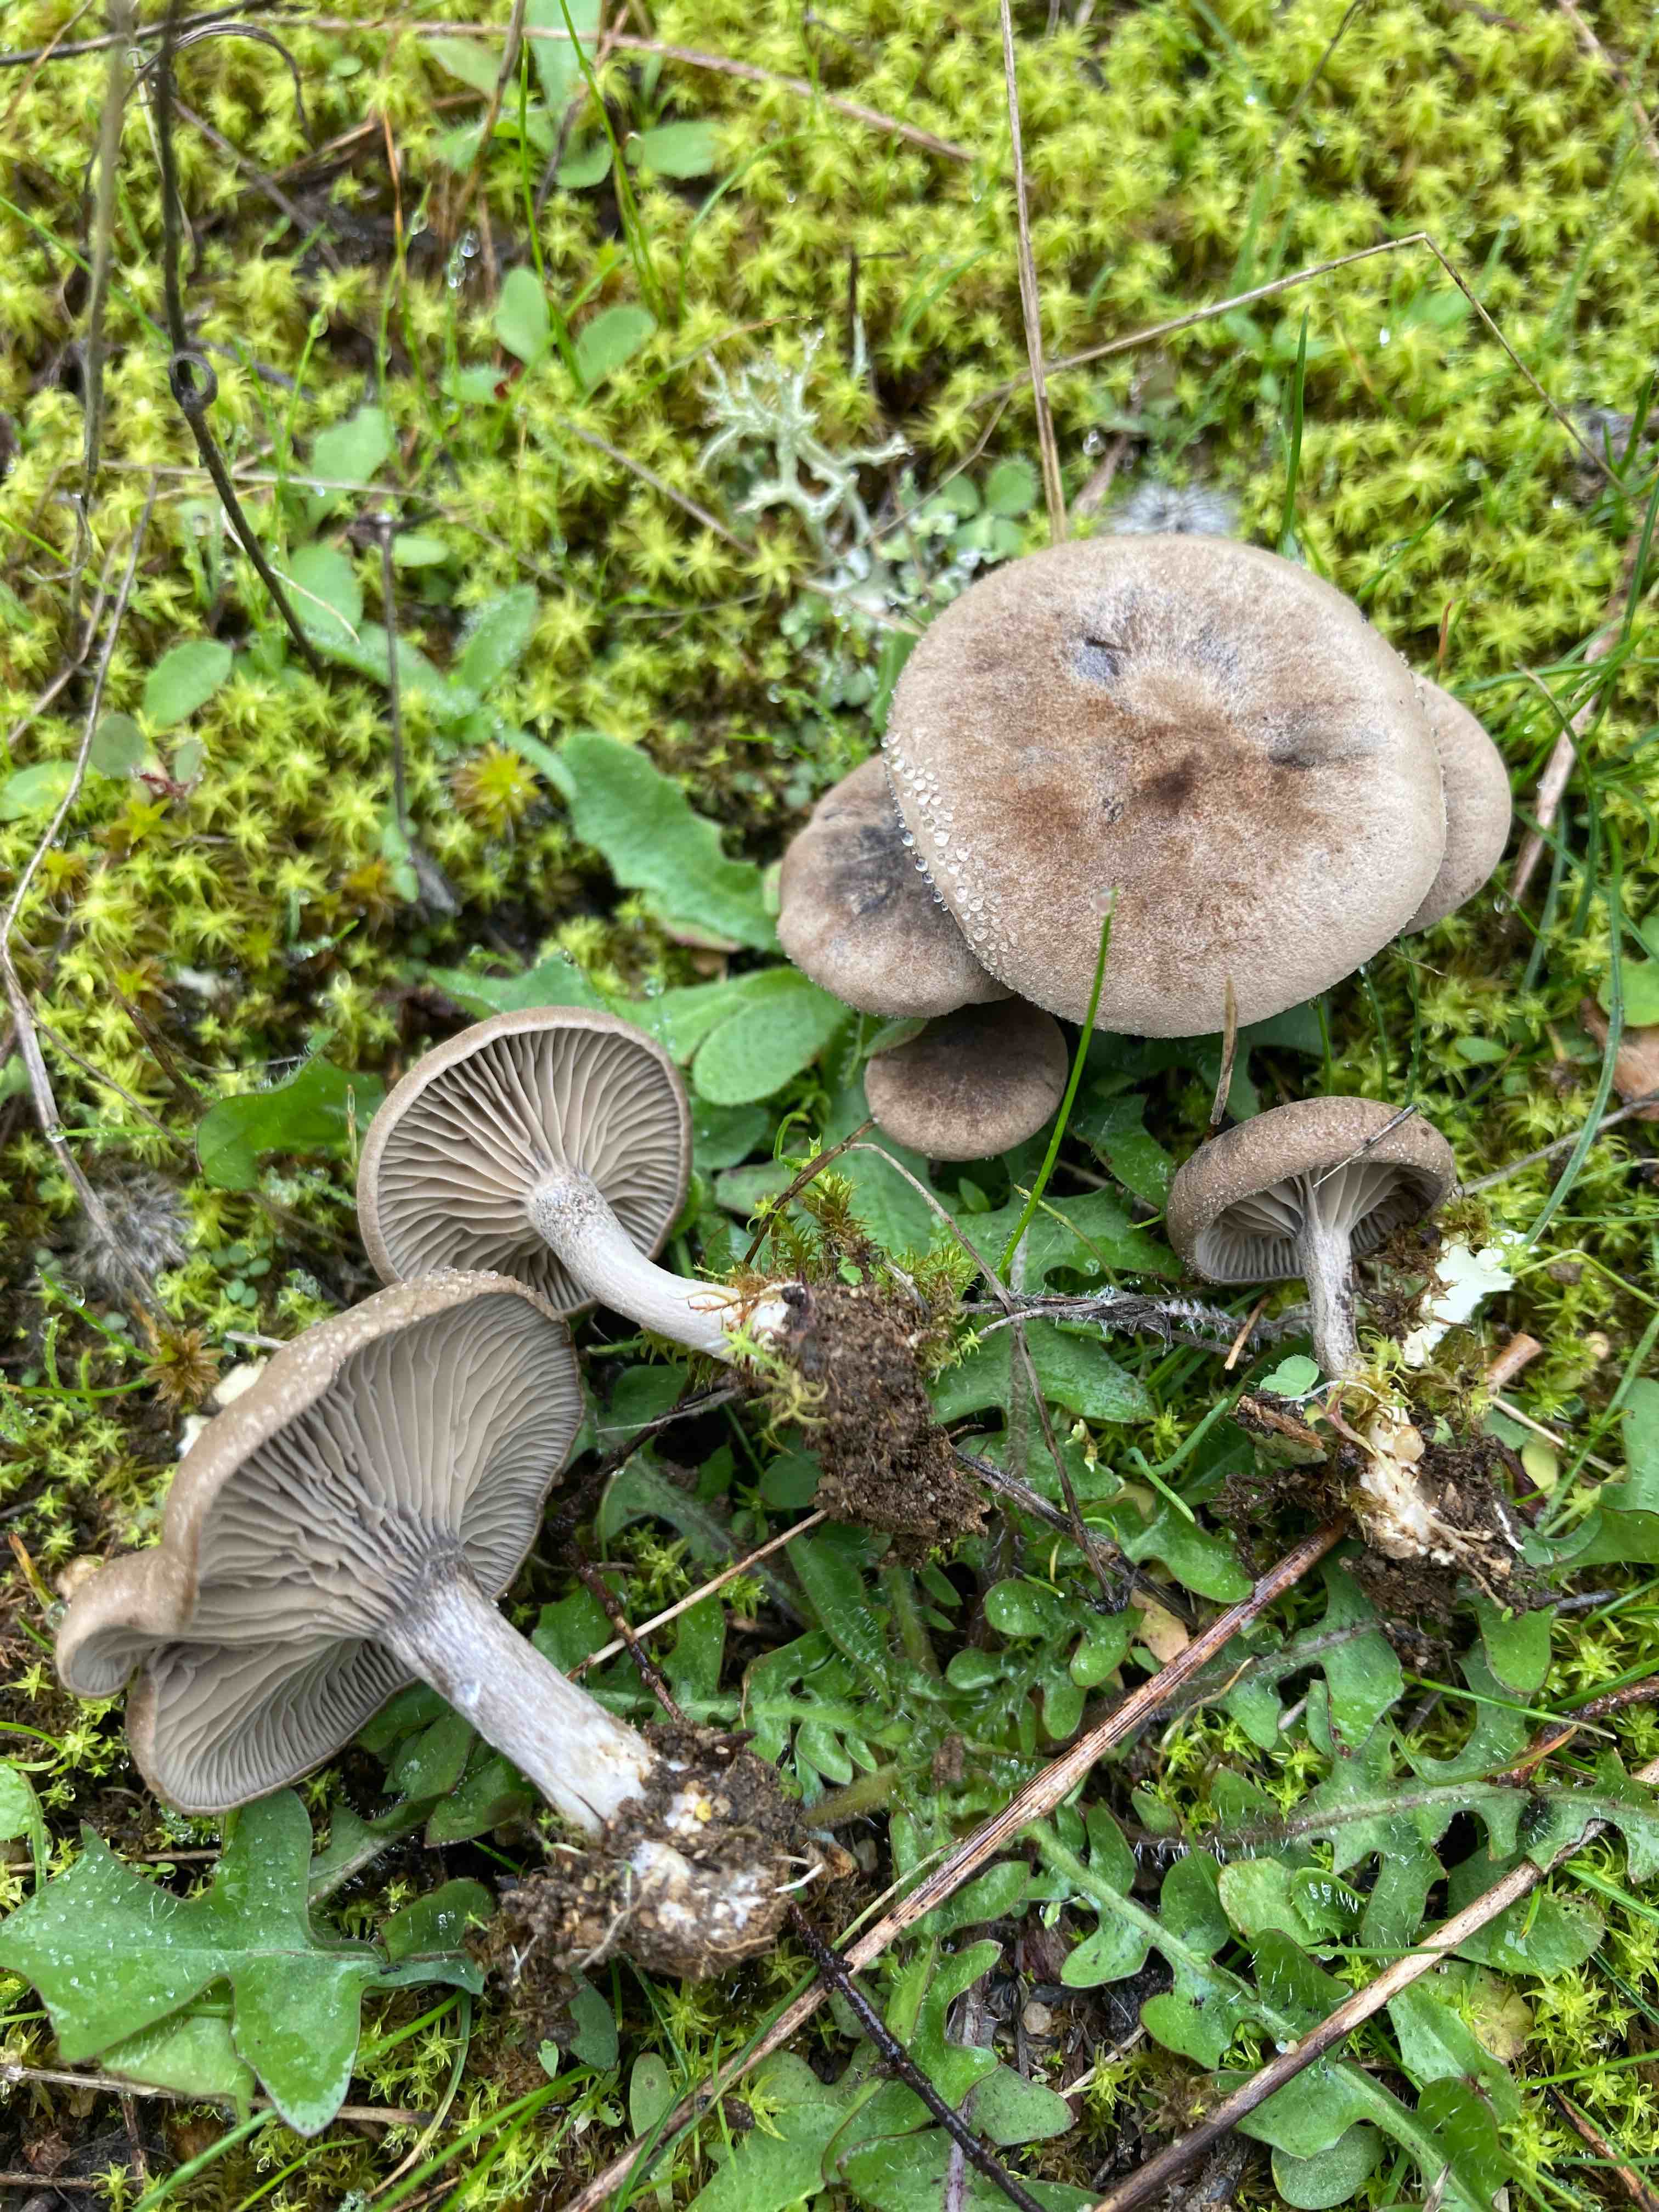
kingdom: Fungi
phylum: Basidiomycota
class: Agaricomycetes
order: Agaricales
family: Entolomataceae
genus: Clitopilus
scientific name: Clitopilus caelatus
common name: gråbrun troldhat
